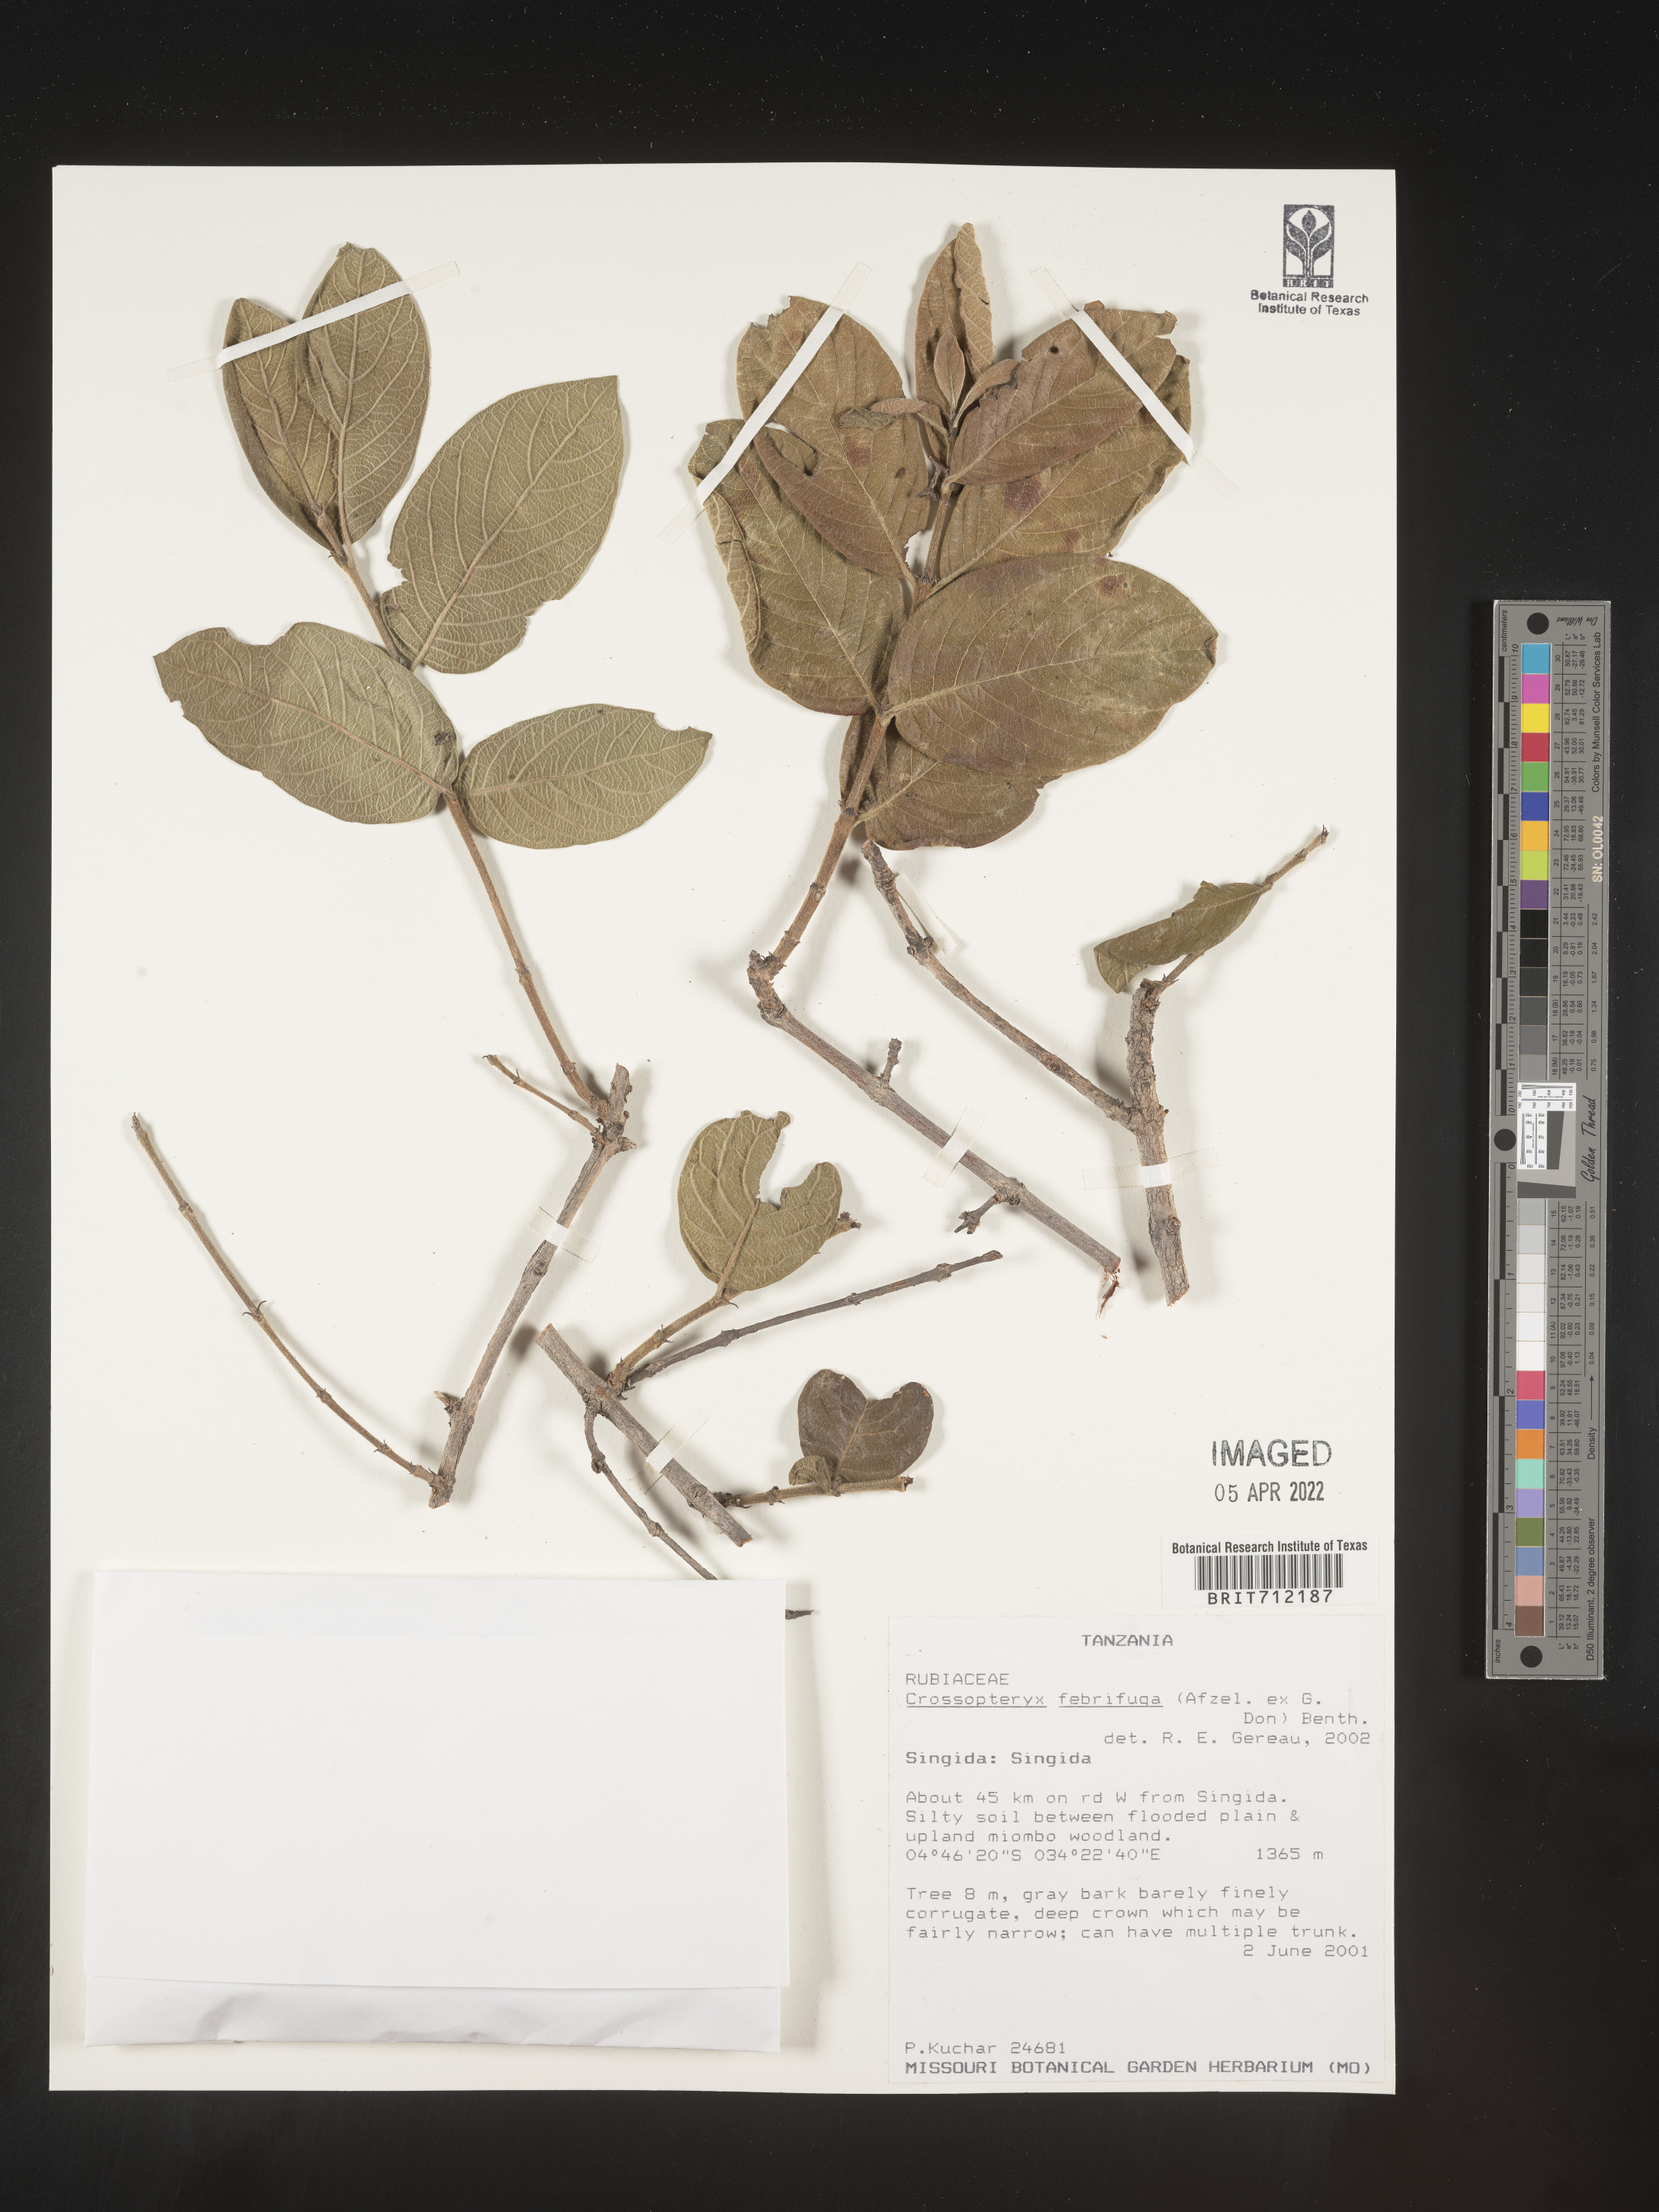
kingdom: Plantae
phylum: Tracheophyta
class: Magnoliopsida
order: Gentianales
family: Rubiaceae
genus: Crossopteryx
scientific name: Crossopteryx
